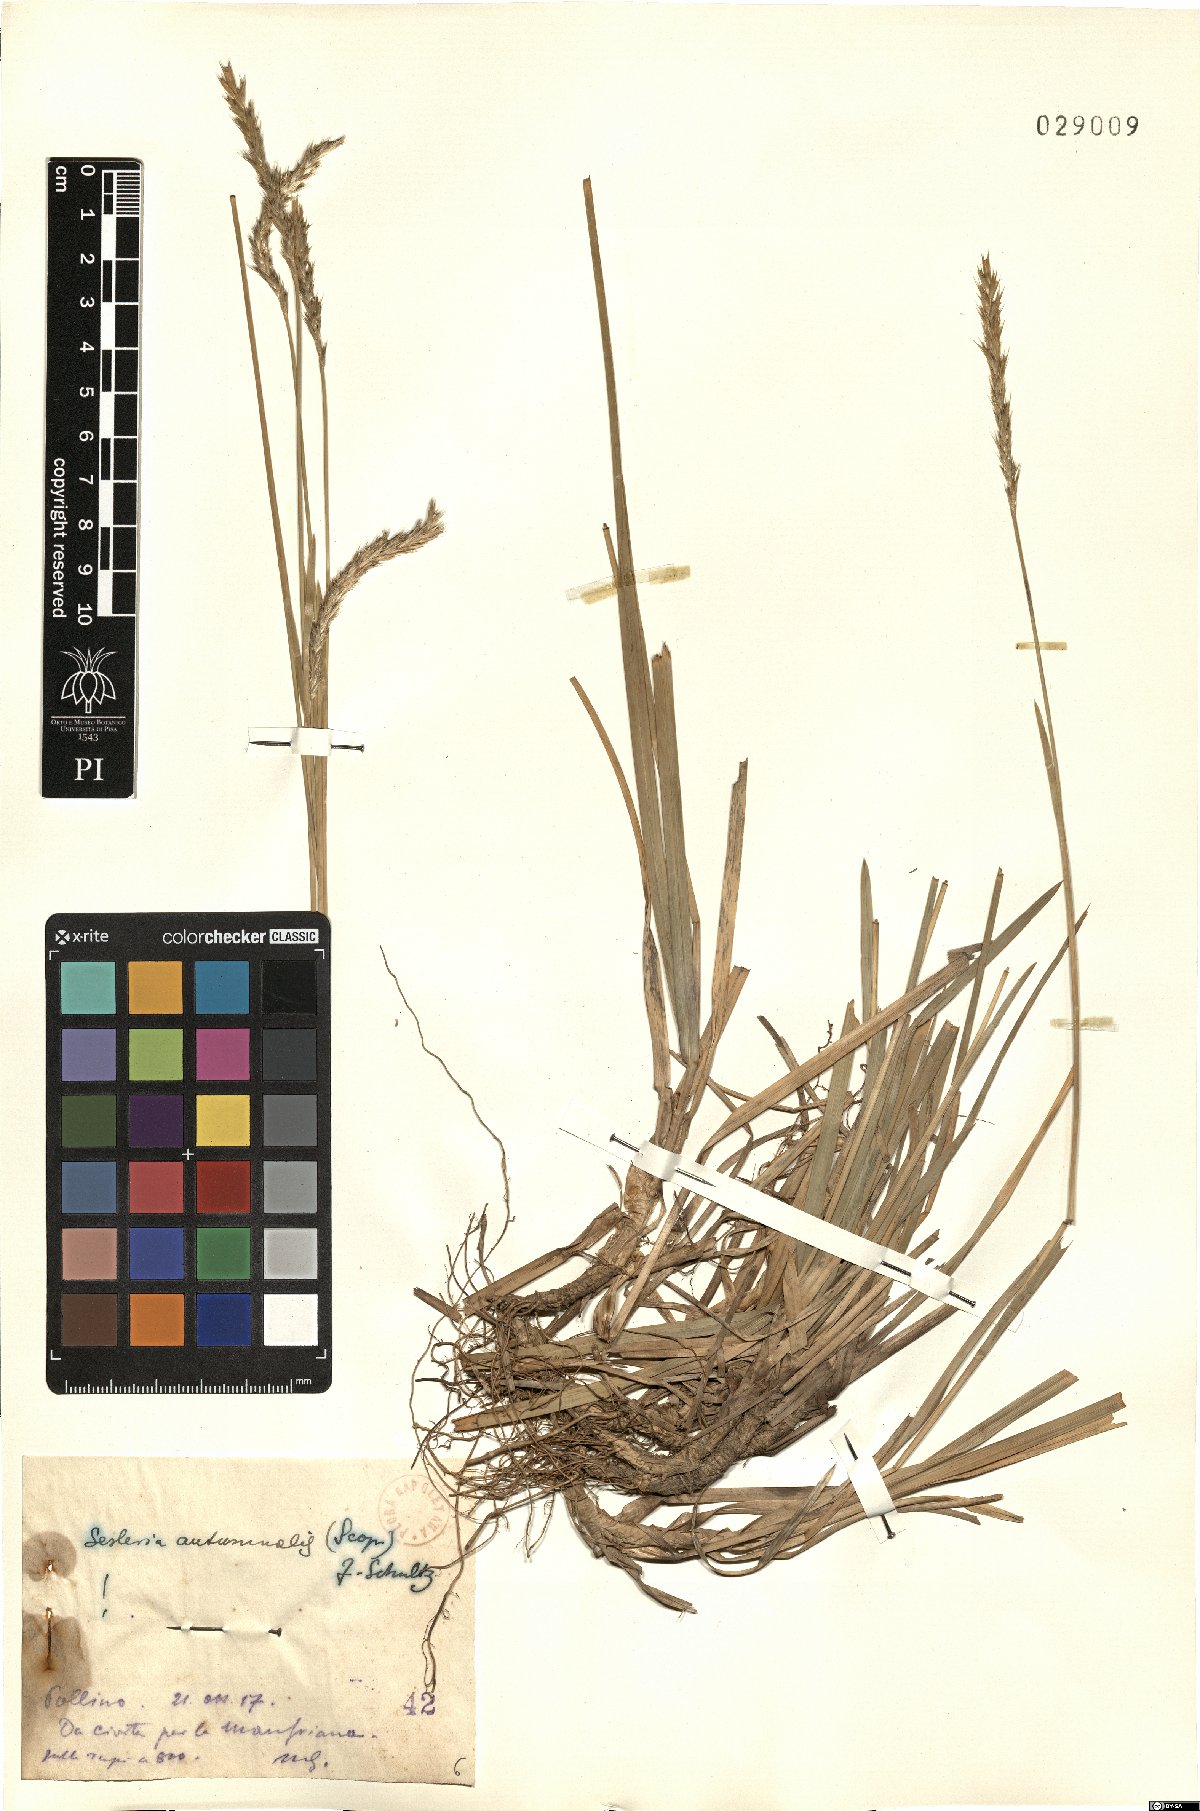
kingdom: Plantae
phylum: Tracheophyta
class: Liliopsida
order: Poales
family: Poaceae
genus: Sesleria
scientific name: Sesleria autumnalis
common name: Autumn moor grass
